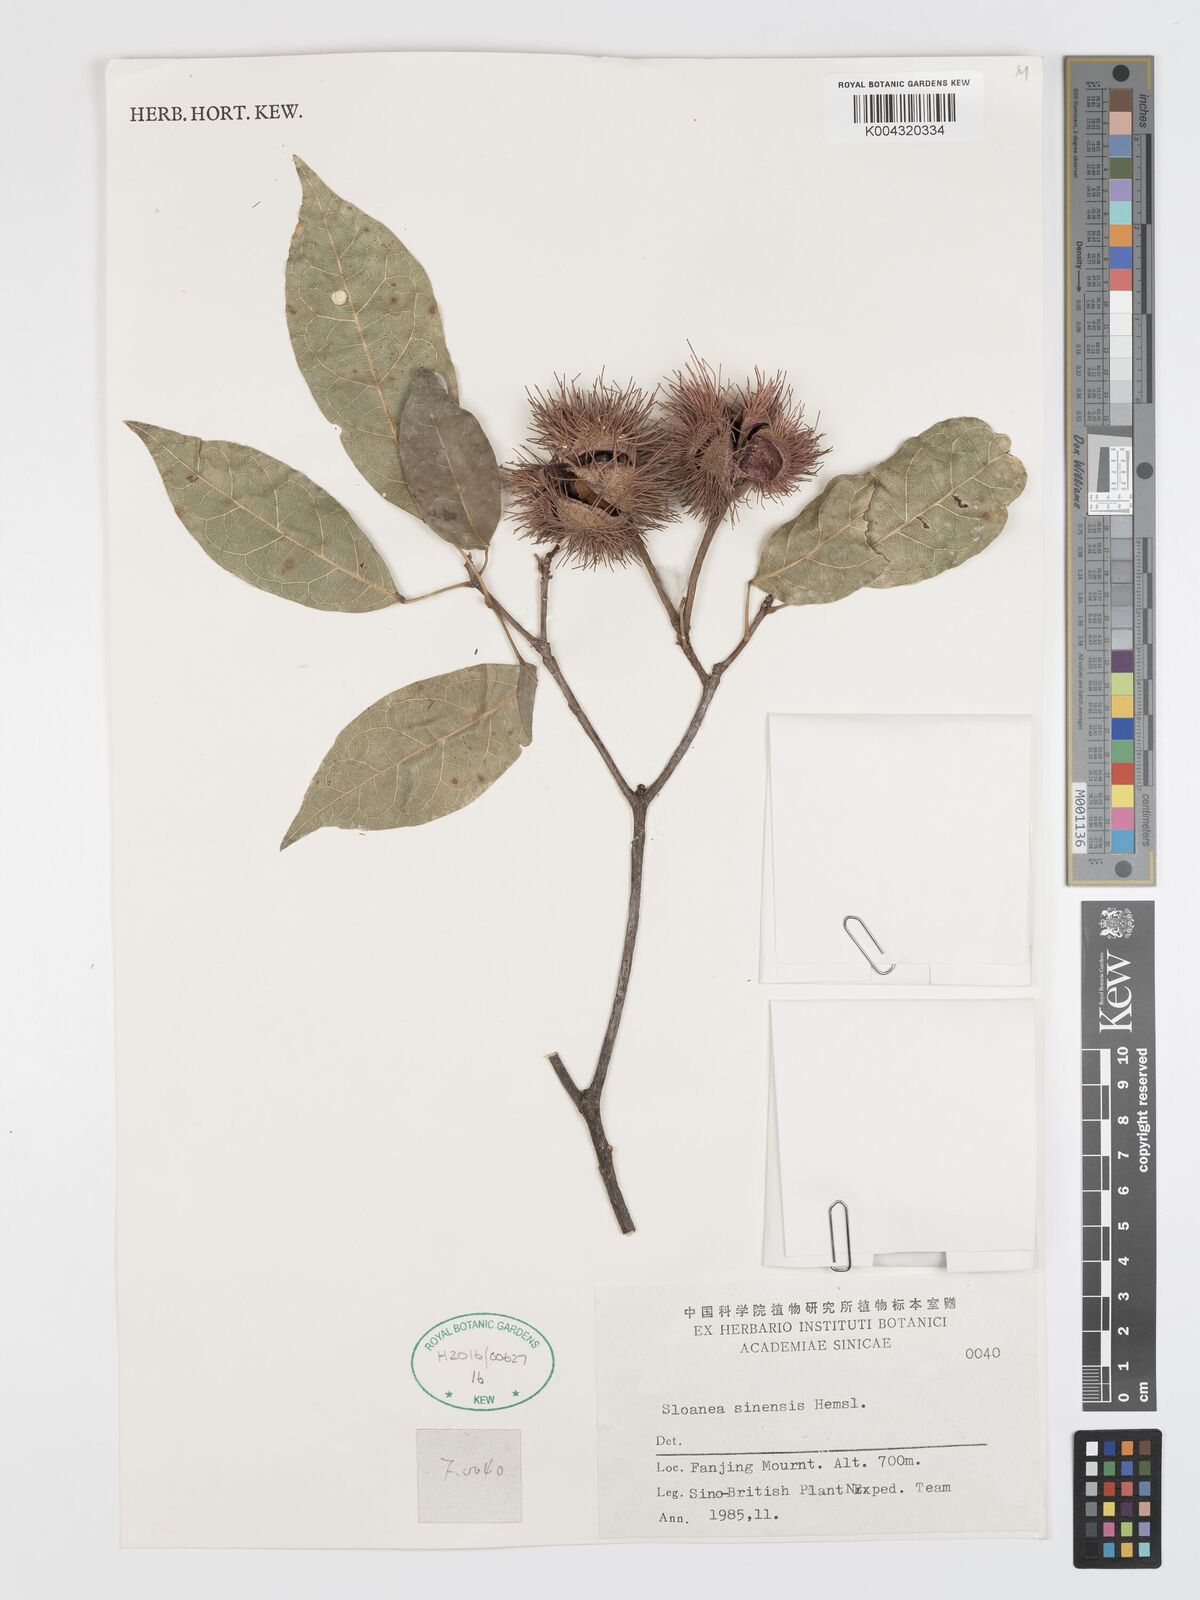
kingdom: Plantae
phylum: Tracheophyta
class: Magnoliopsida
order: Oxalidales
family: Elaeocarpaceae
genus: Sloanea
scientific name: Sloanea sinensis
